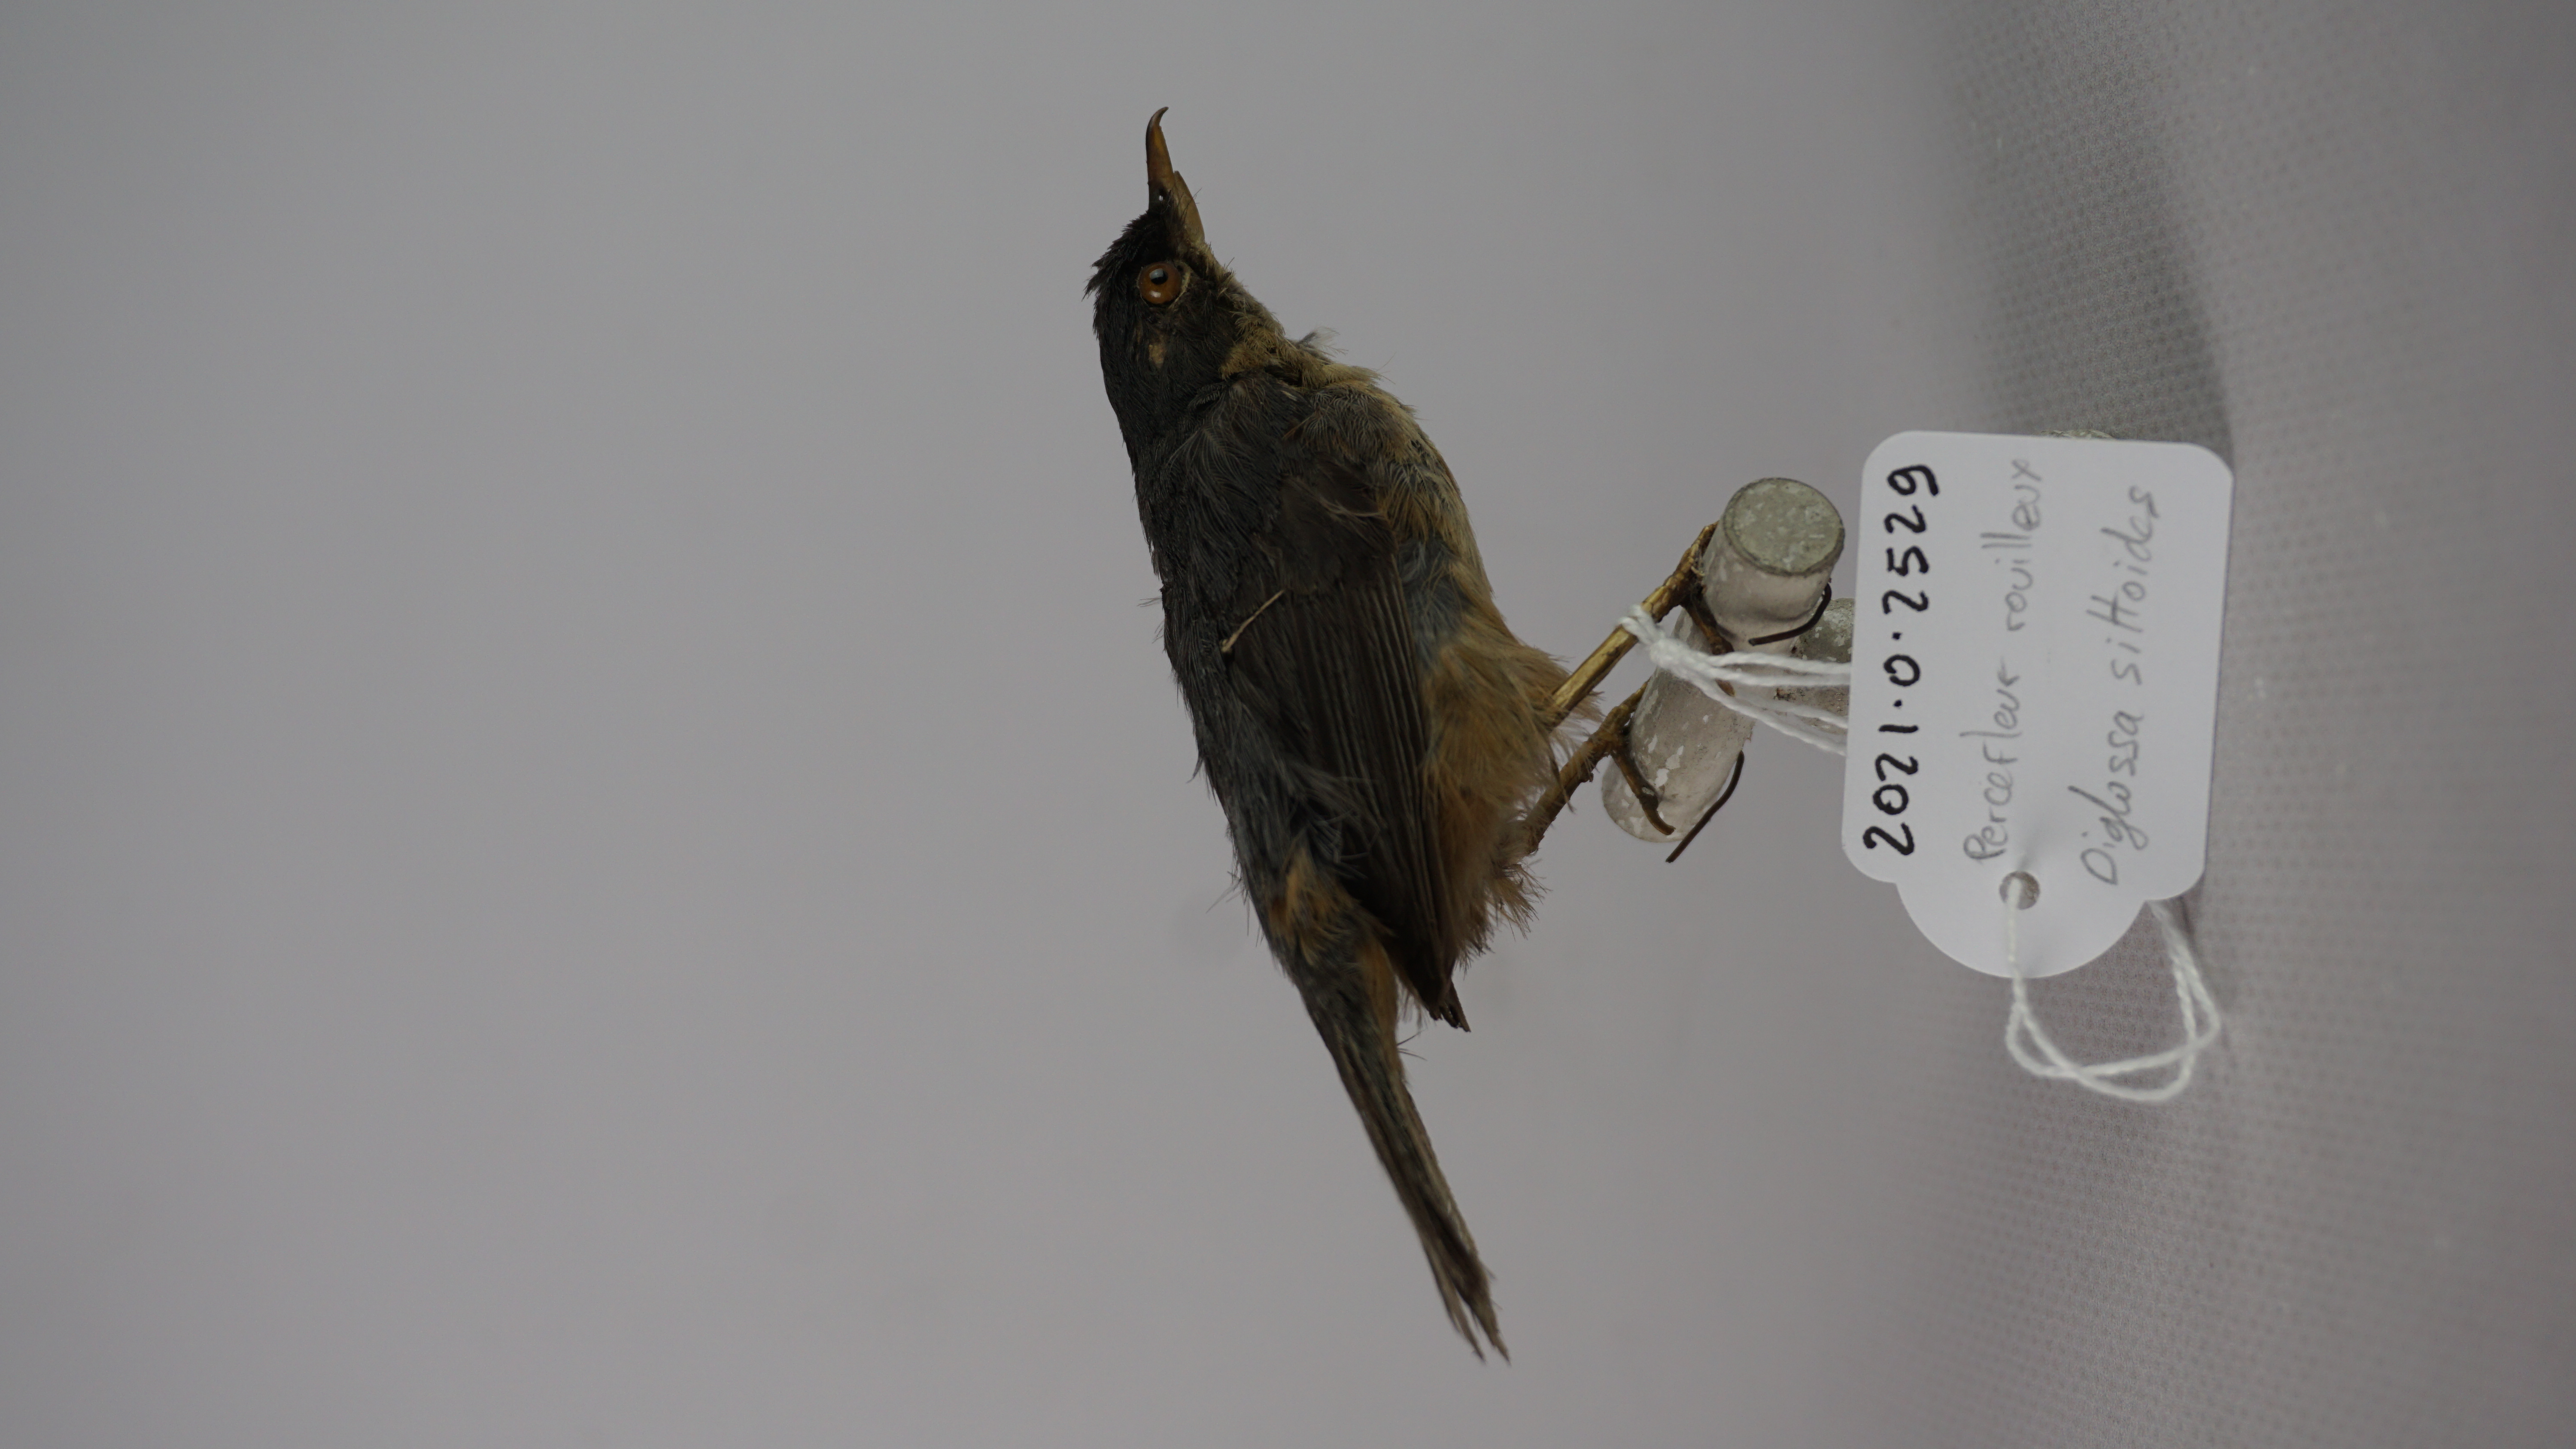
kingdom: Animalia
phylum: Chordata
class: Aves
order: Passeriformes
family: Thraupidae
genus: Diglossa
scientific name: Diglossa sittoides
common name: Rusty flowerpiercer
